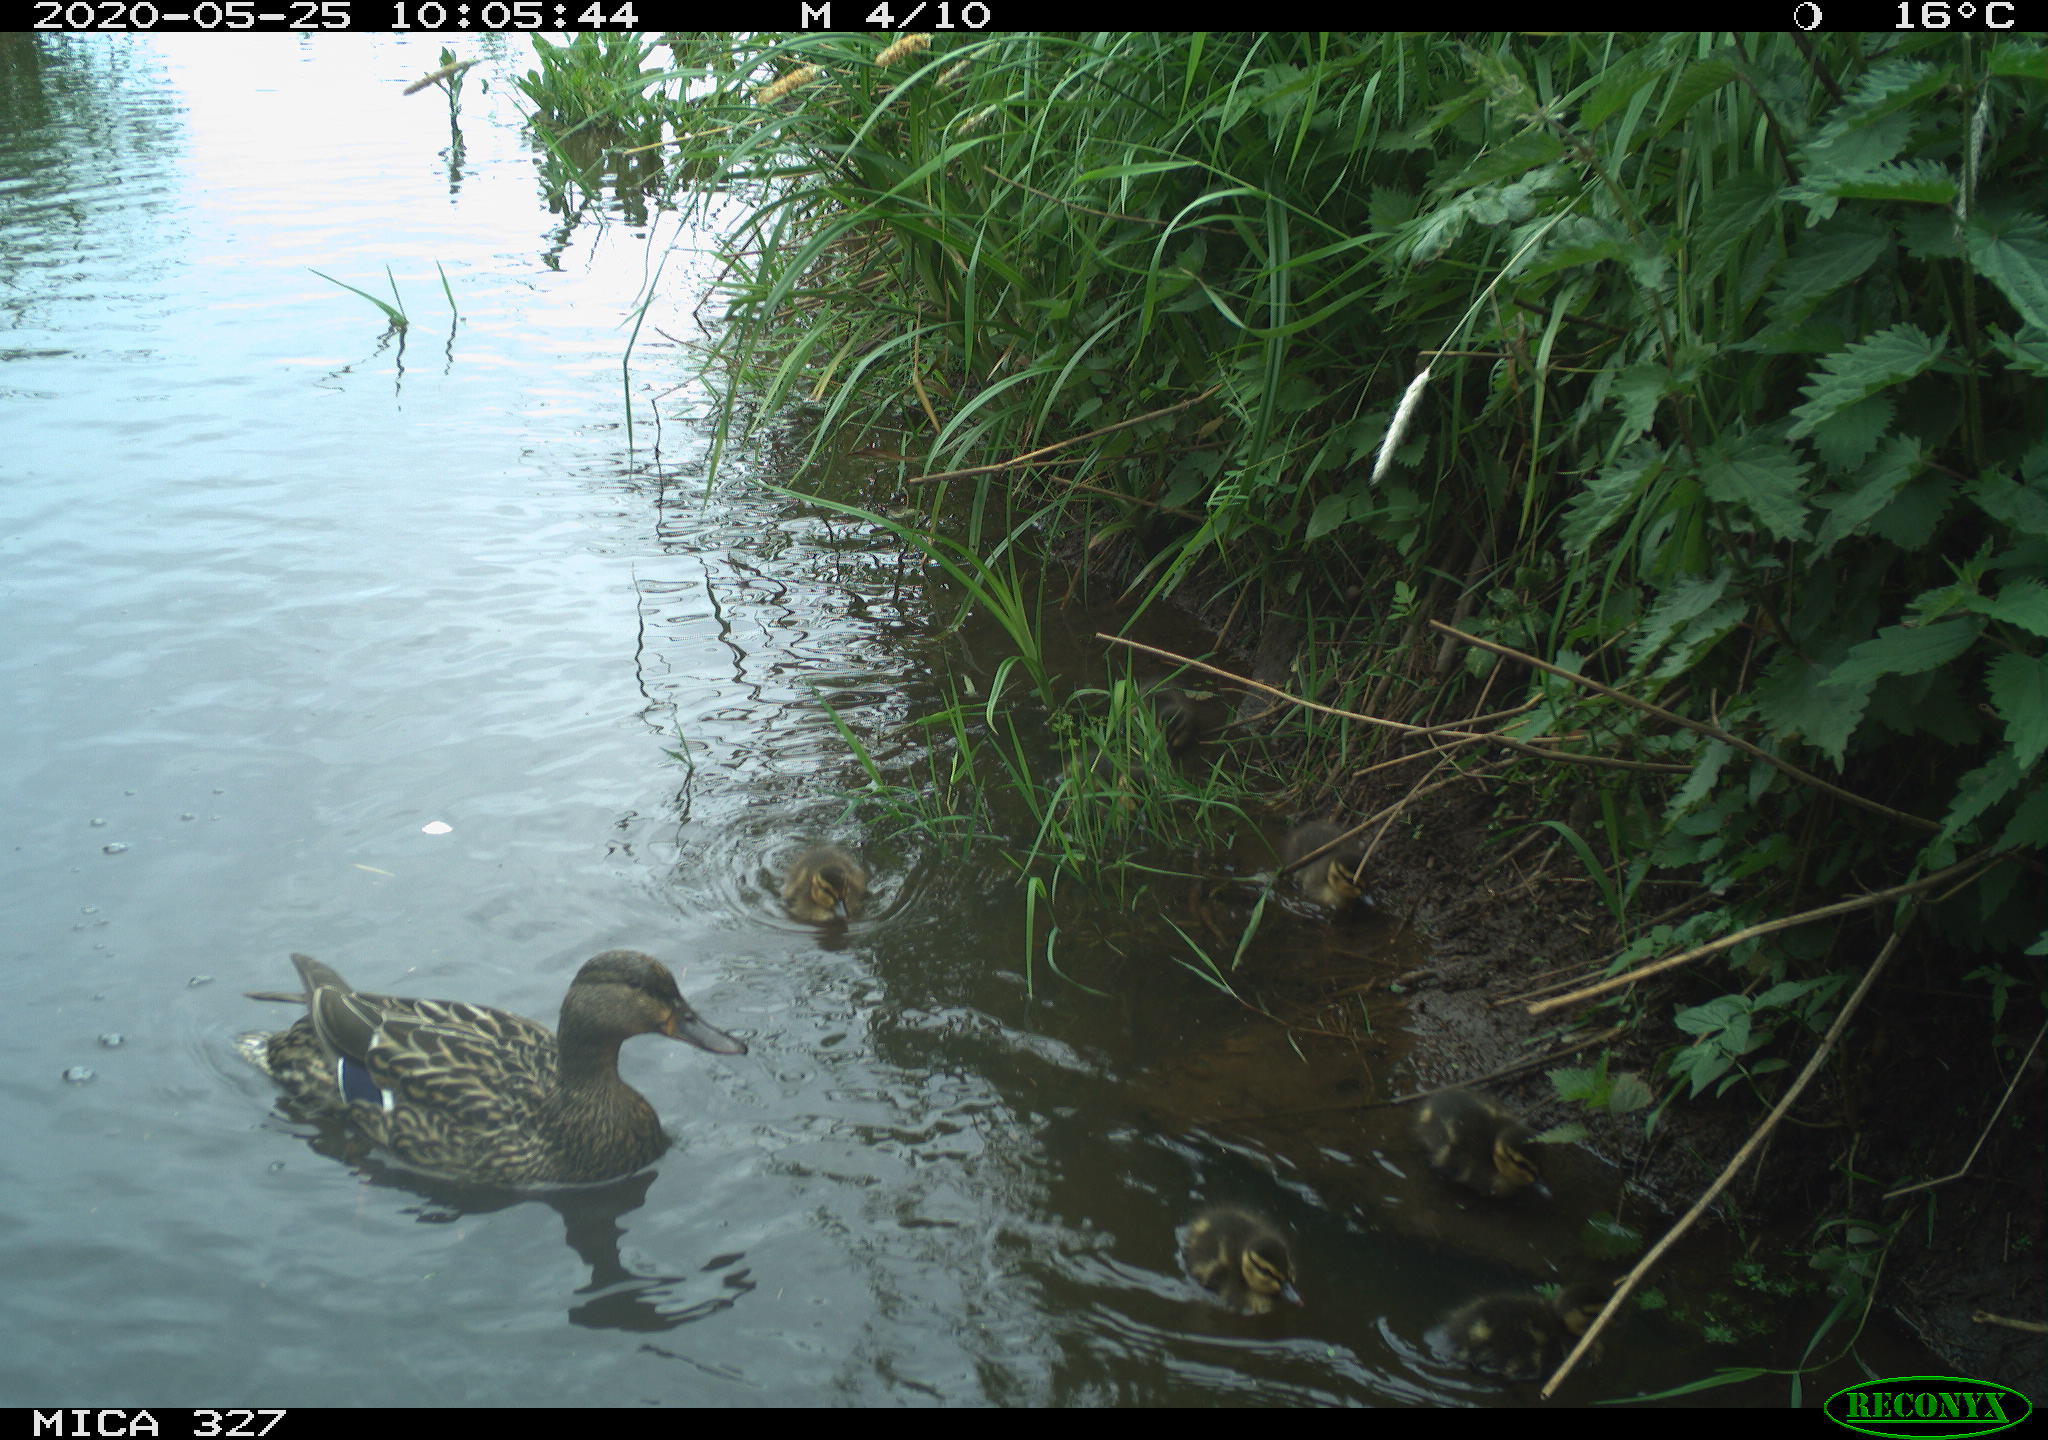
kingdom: Animalia
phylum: Chordata
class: Aves
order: Anseriformes
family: Anatidae
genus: Anas
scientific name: Anas platyrhynchos
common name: Mallard
